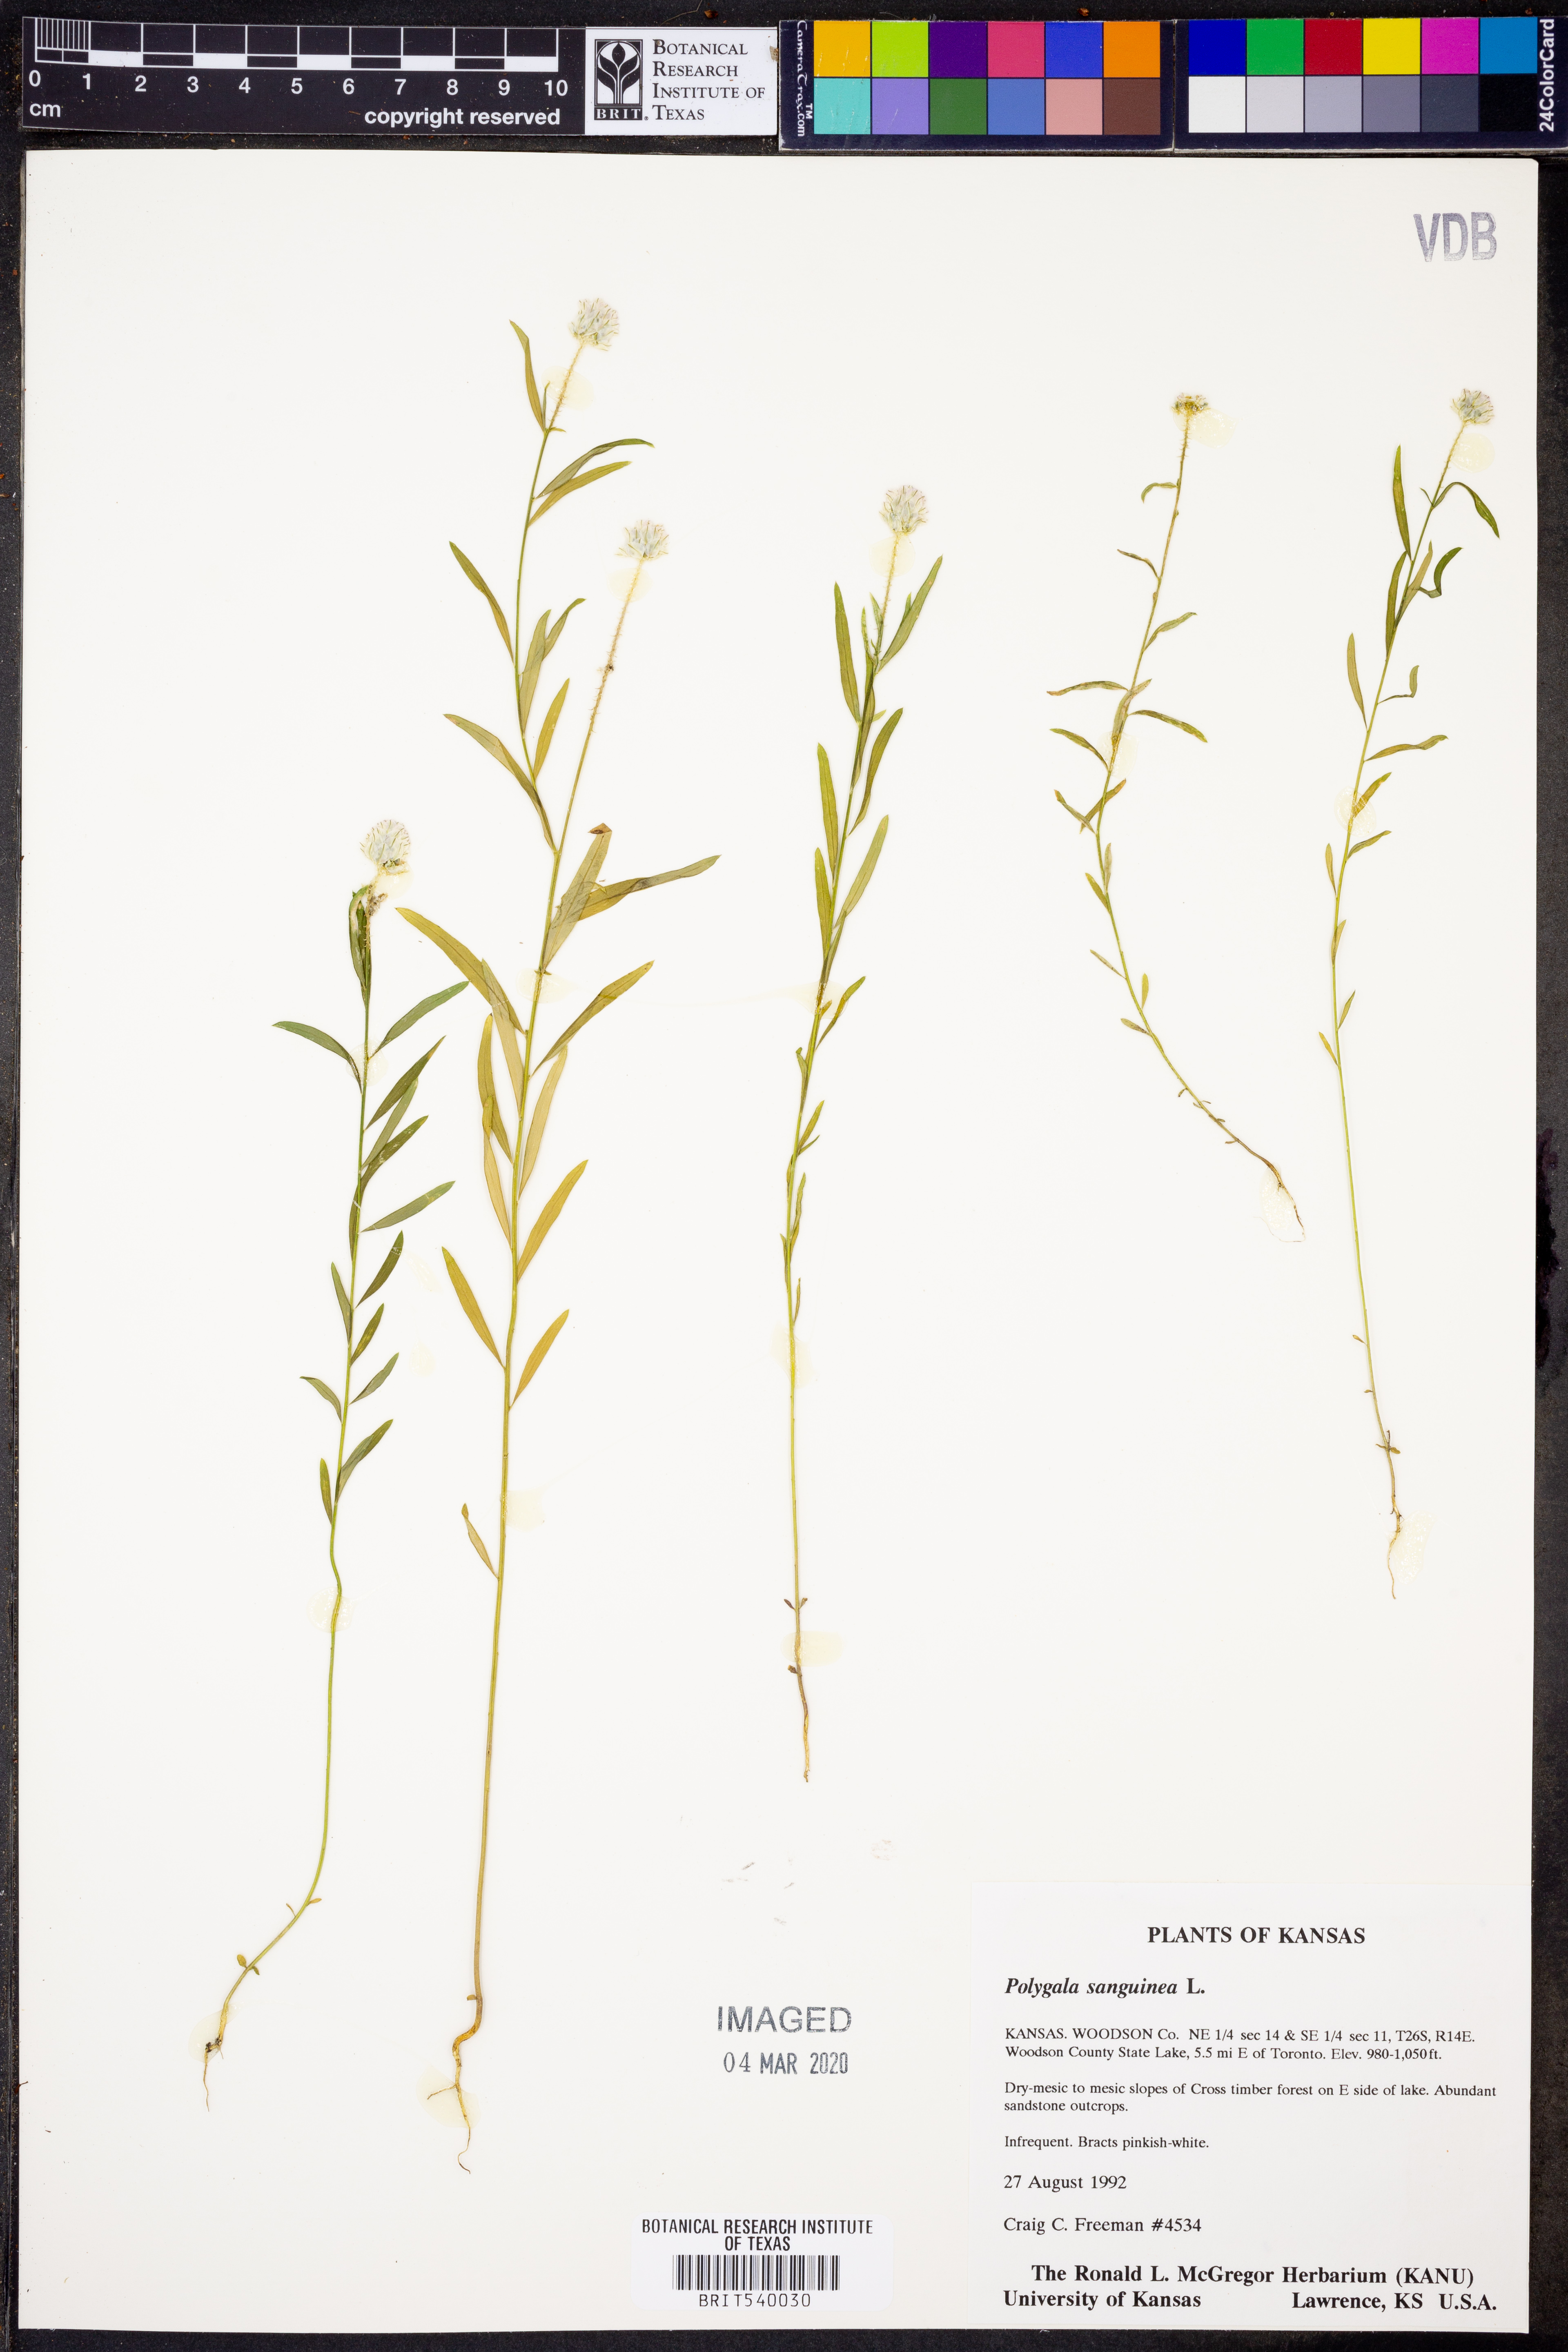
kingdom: Plantae
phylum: Tracheophyta
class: Magnoliopsida
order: Fabales
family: Polygalaceae
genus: Polygala
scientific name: Polygala sanguinea
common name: Blood milkwort
